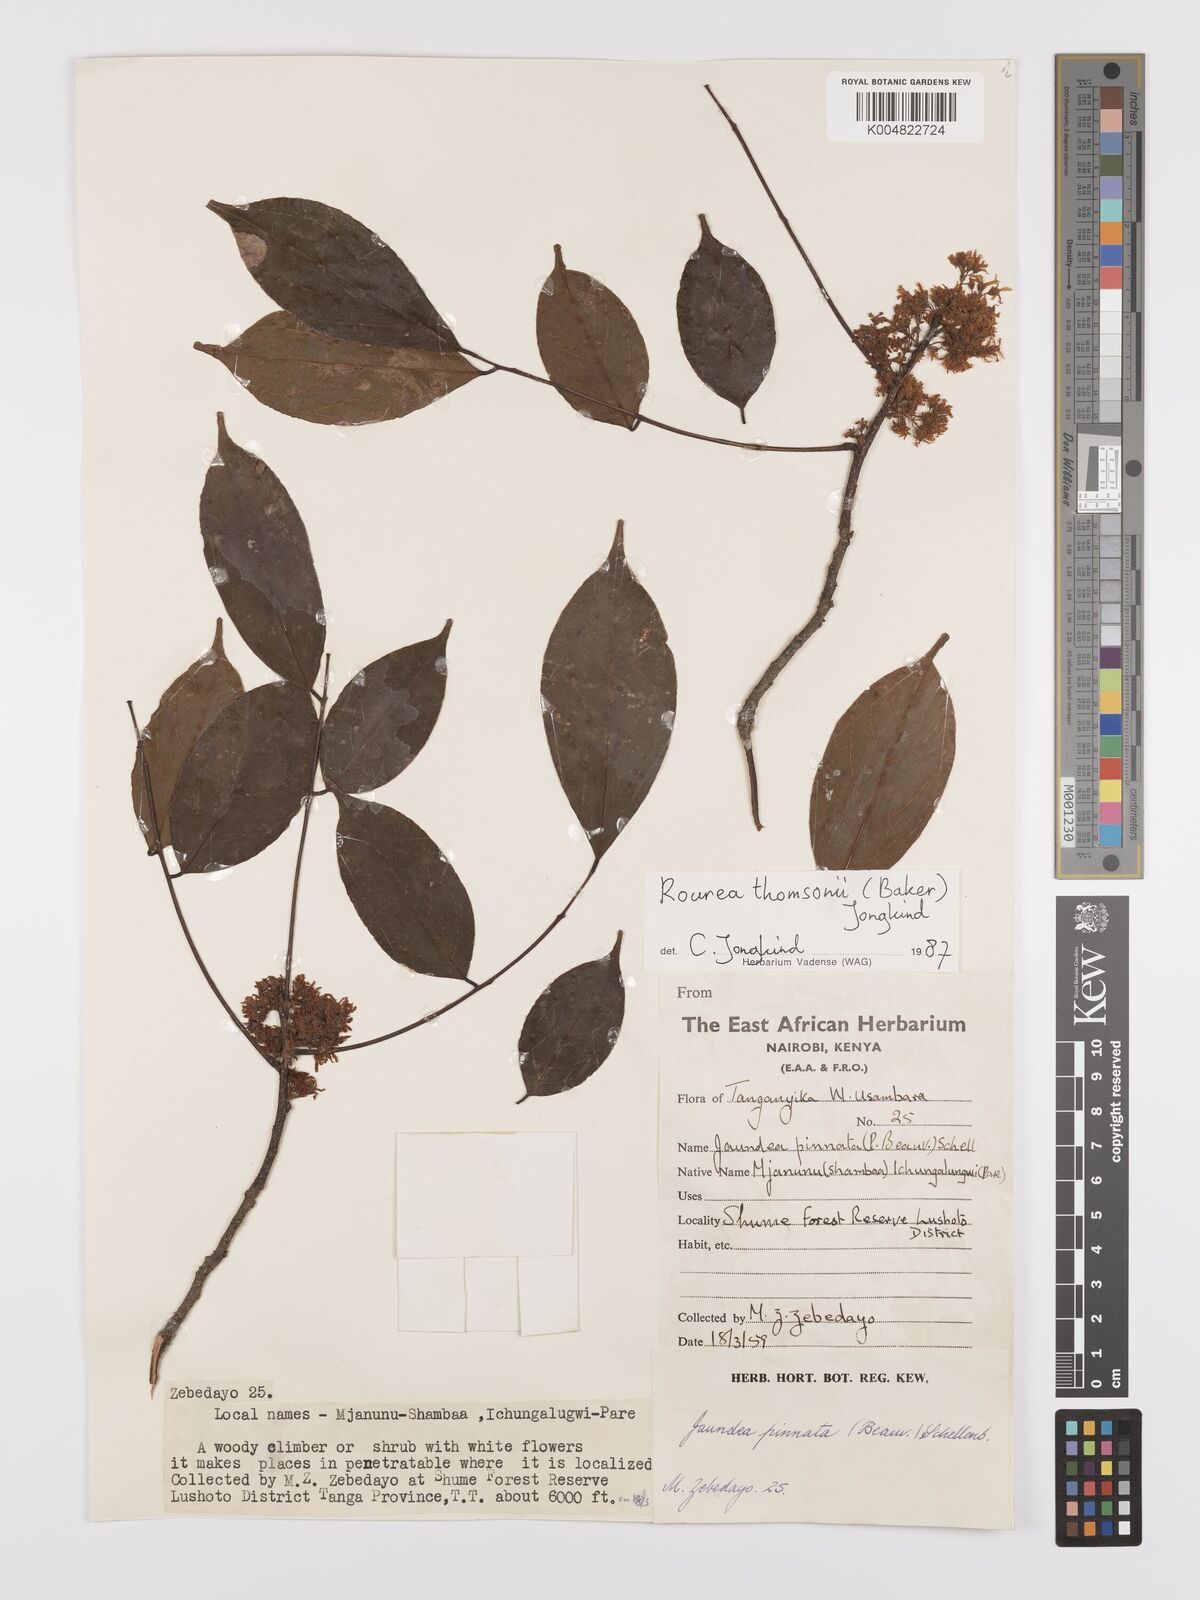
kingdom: Plantae
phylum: Tracheophyta
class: Magnoliopsida
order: Oxalidales
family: Connaraceae
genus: Rourea
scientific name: Rourea pinnata
